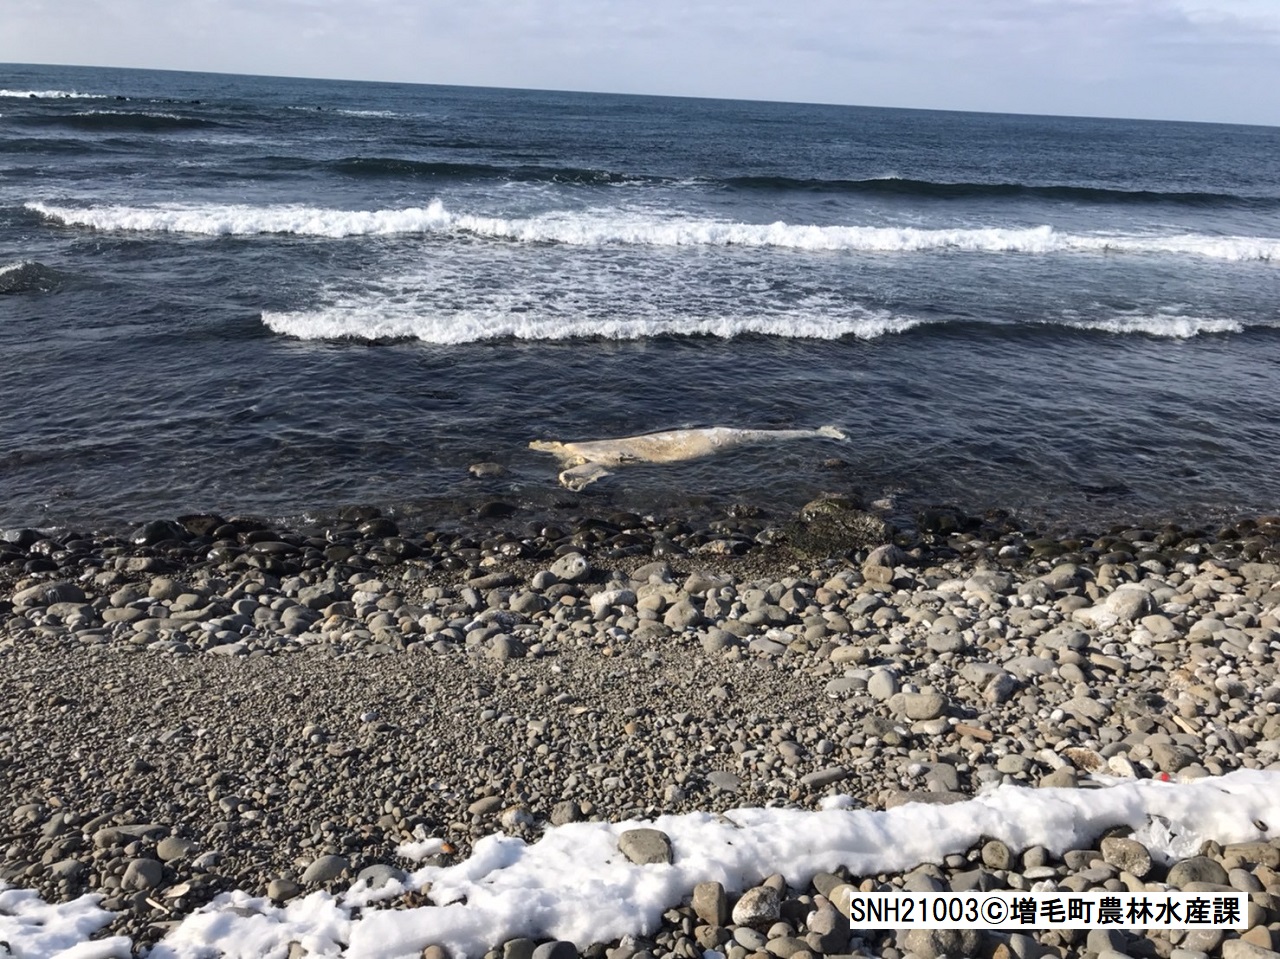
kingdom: Animalia
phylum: Chordata
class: Mammalia
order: Cetacea
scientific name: Cetacea
